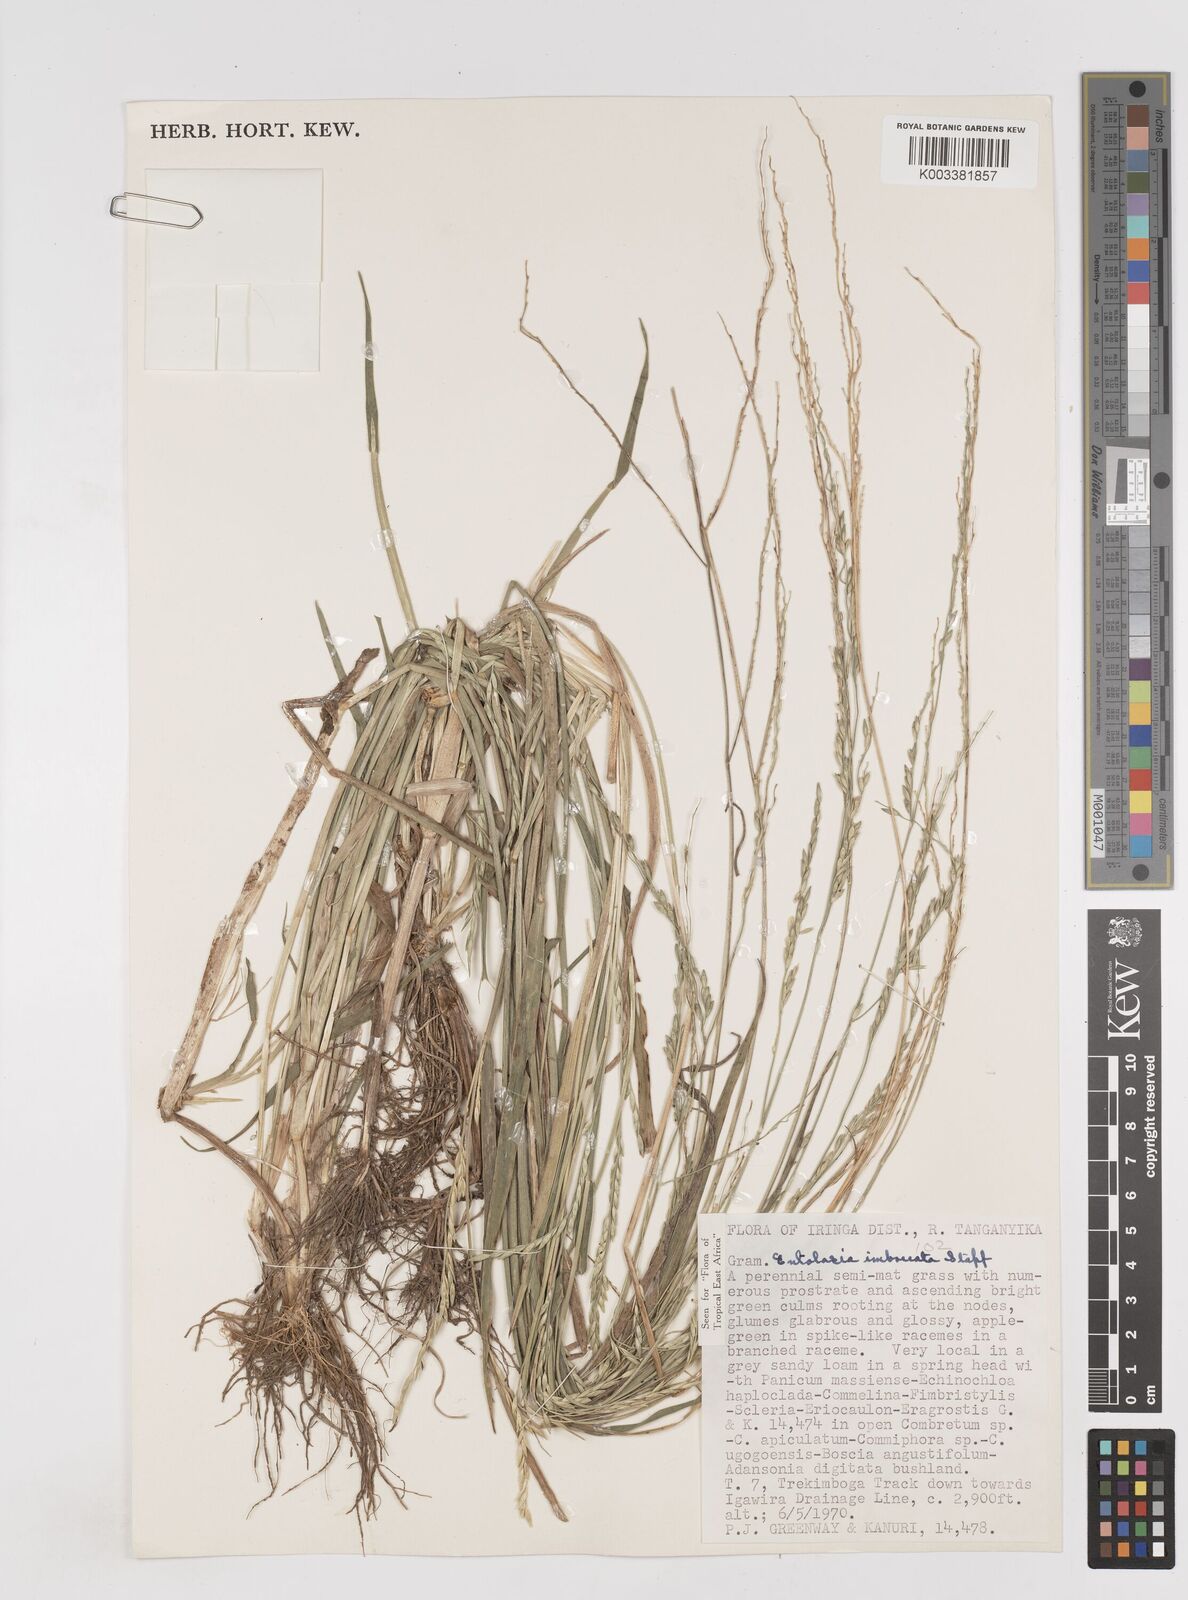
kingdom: Plantae
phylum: Tracheophyta
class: Liliopsida
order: Poales
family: Poaceae
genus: Entolasia
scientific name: Entolasia imbricata
